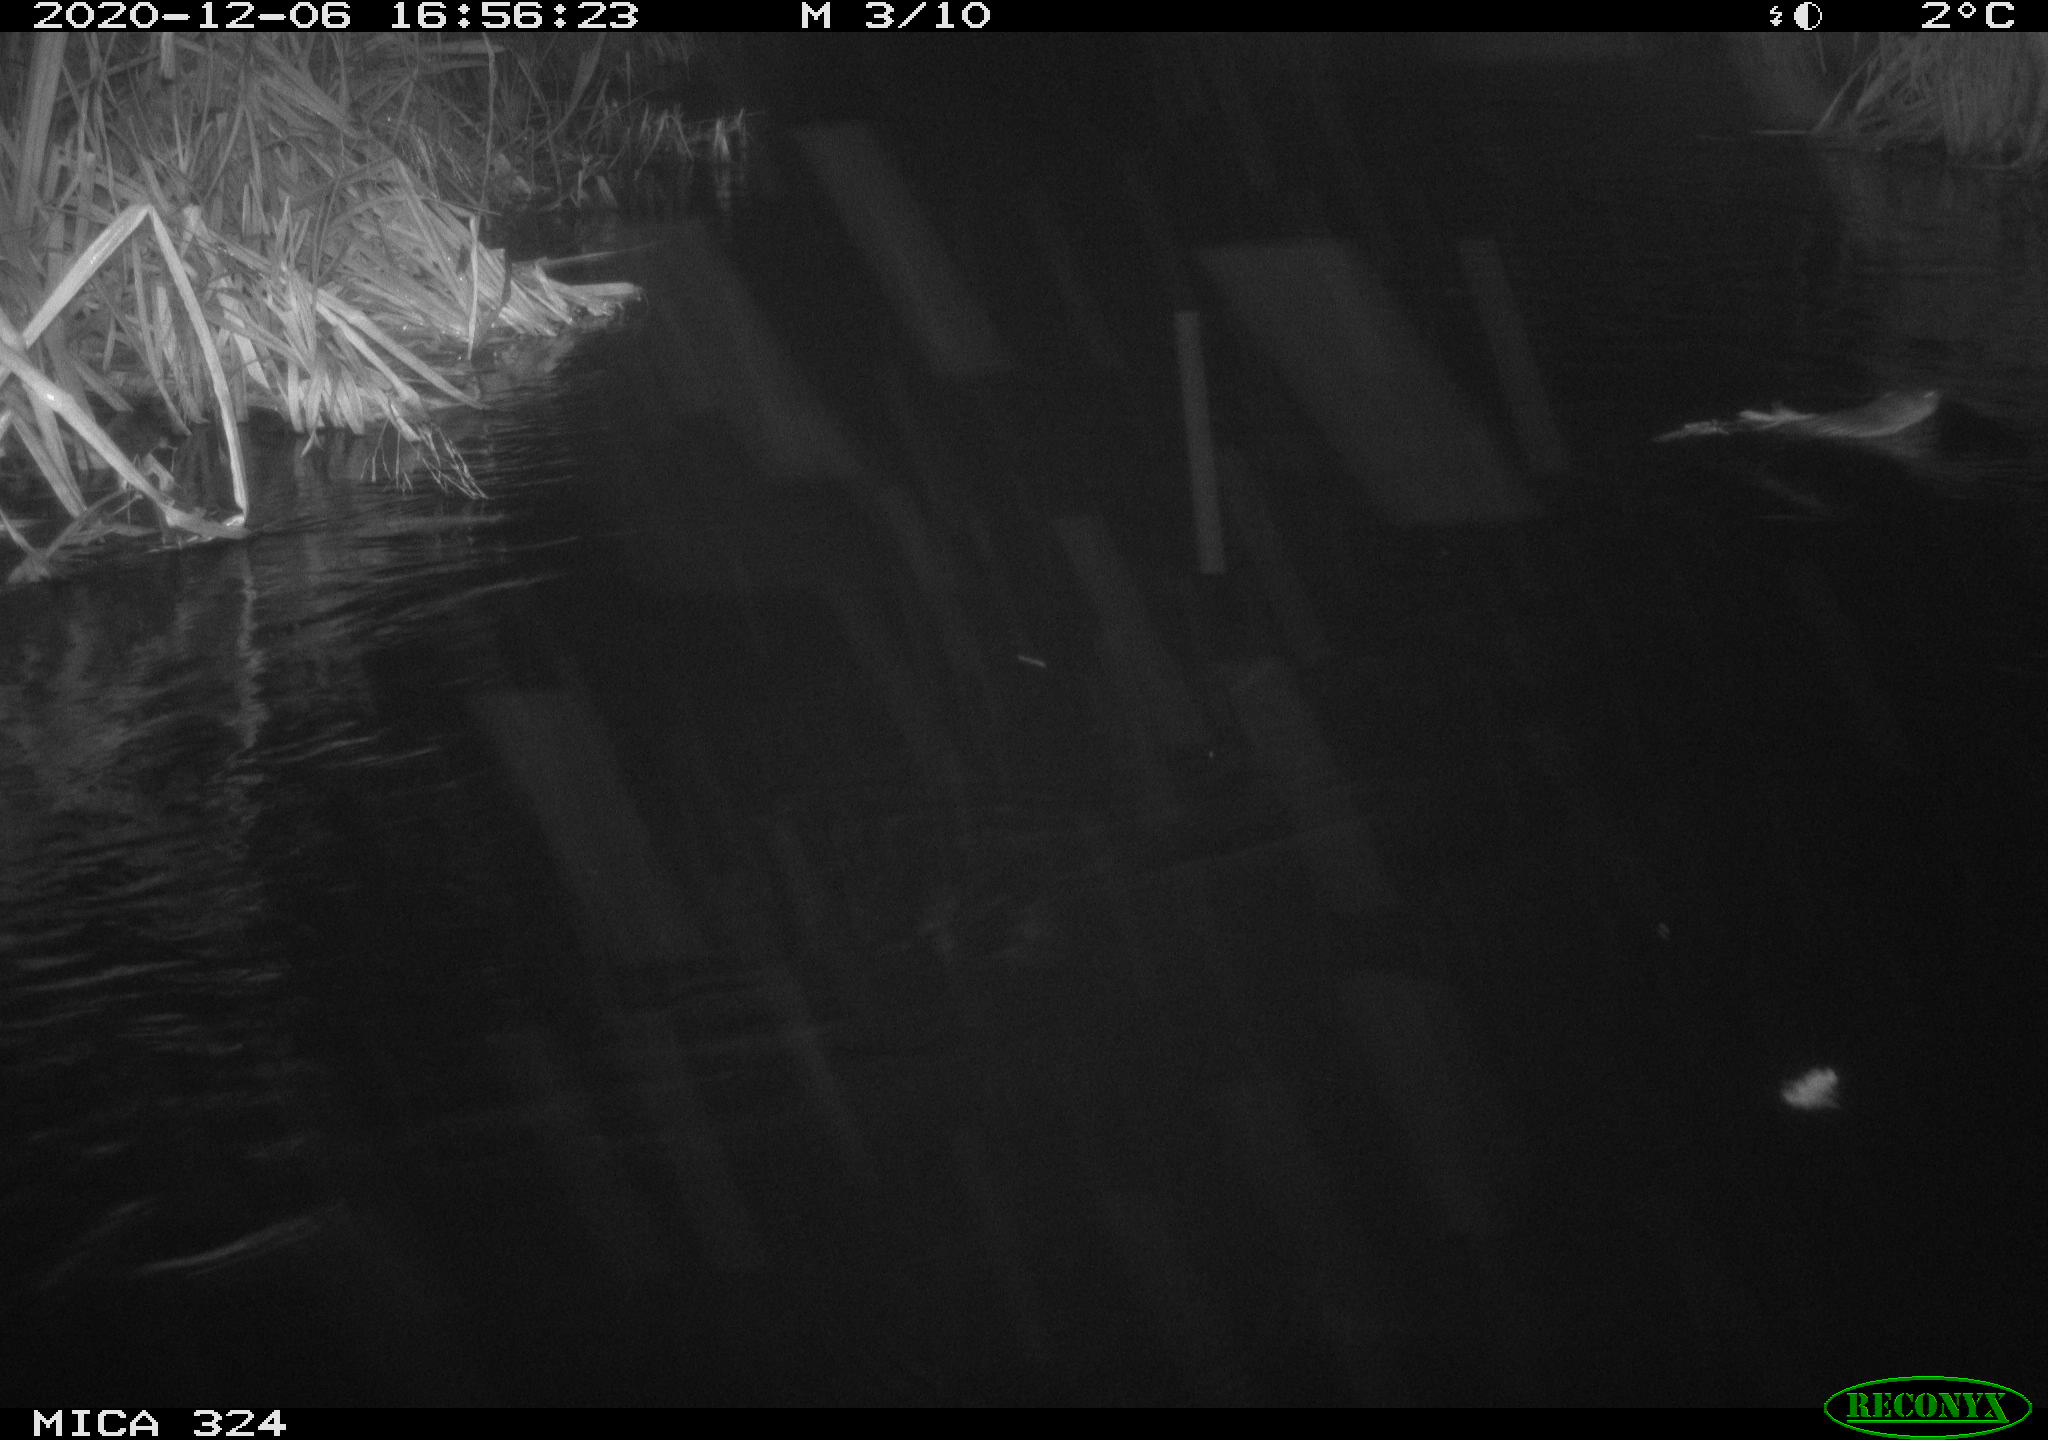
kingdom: Animalia
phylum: Chordata
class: Mammalia
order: Rodentia
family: Cricetidae
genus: Ondatra
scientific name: Ondatra zibethicus
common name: Muskrat
